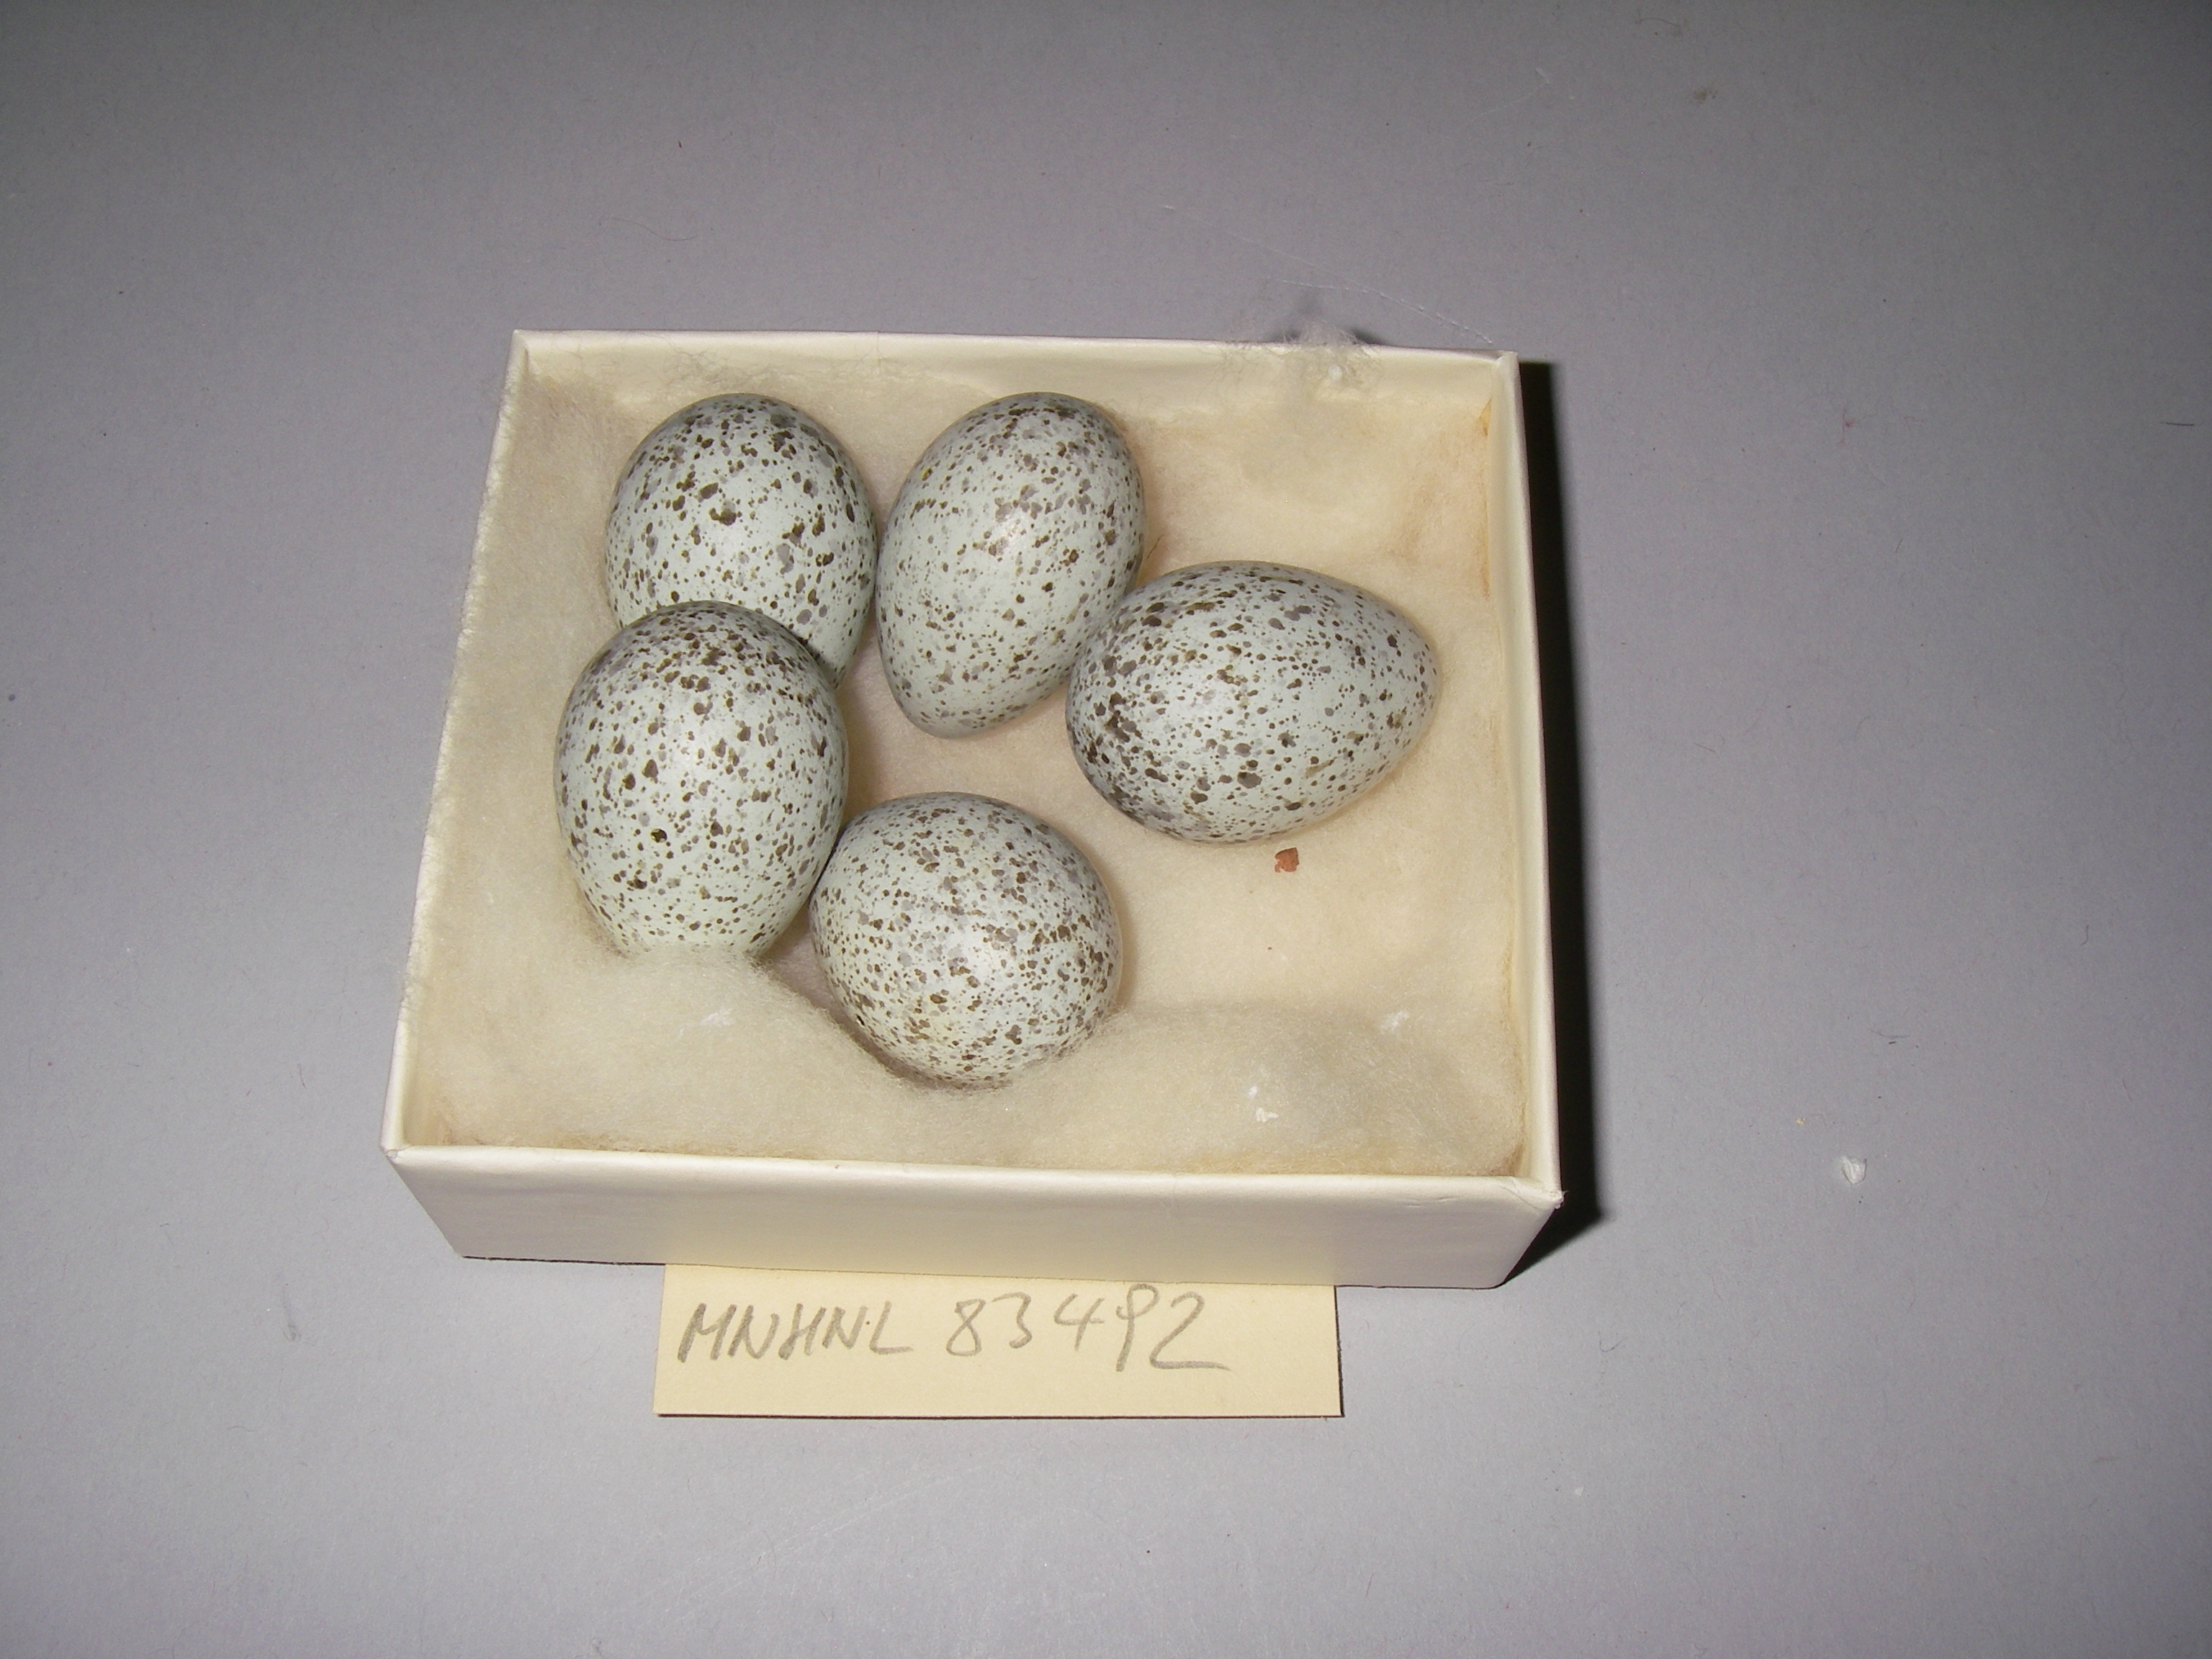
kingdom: Animalia
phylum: Chordata
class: Aves
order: Passeriformes
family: Corvidae
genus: Pica
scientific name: Pica pica
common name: Eurasian magpie
